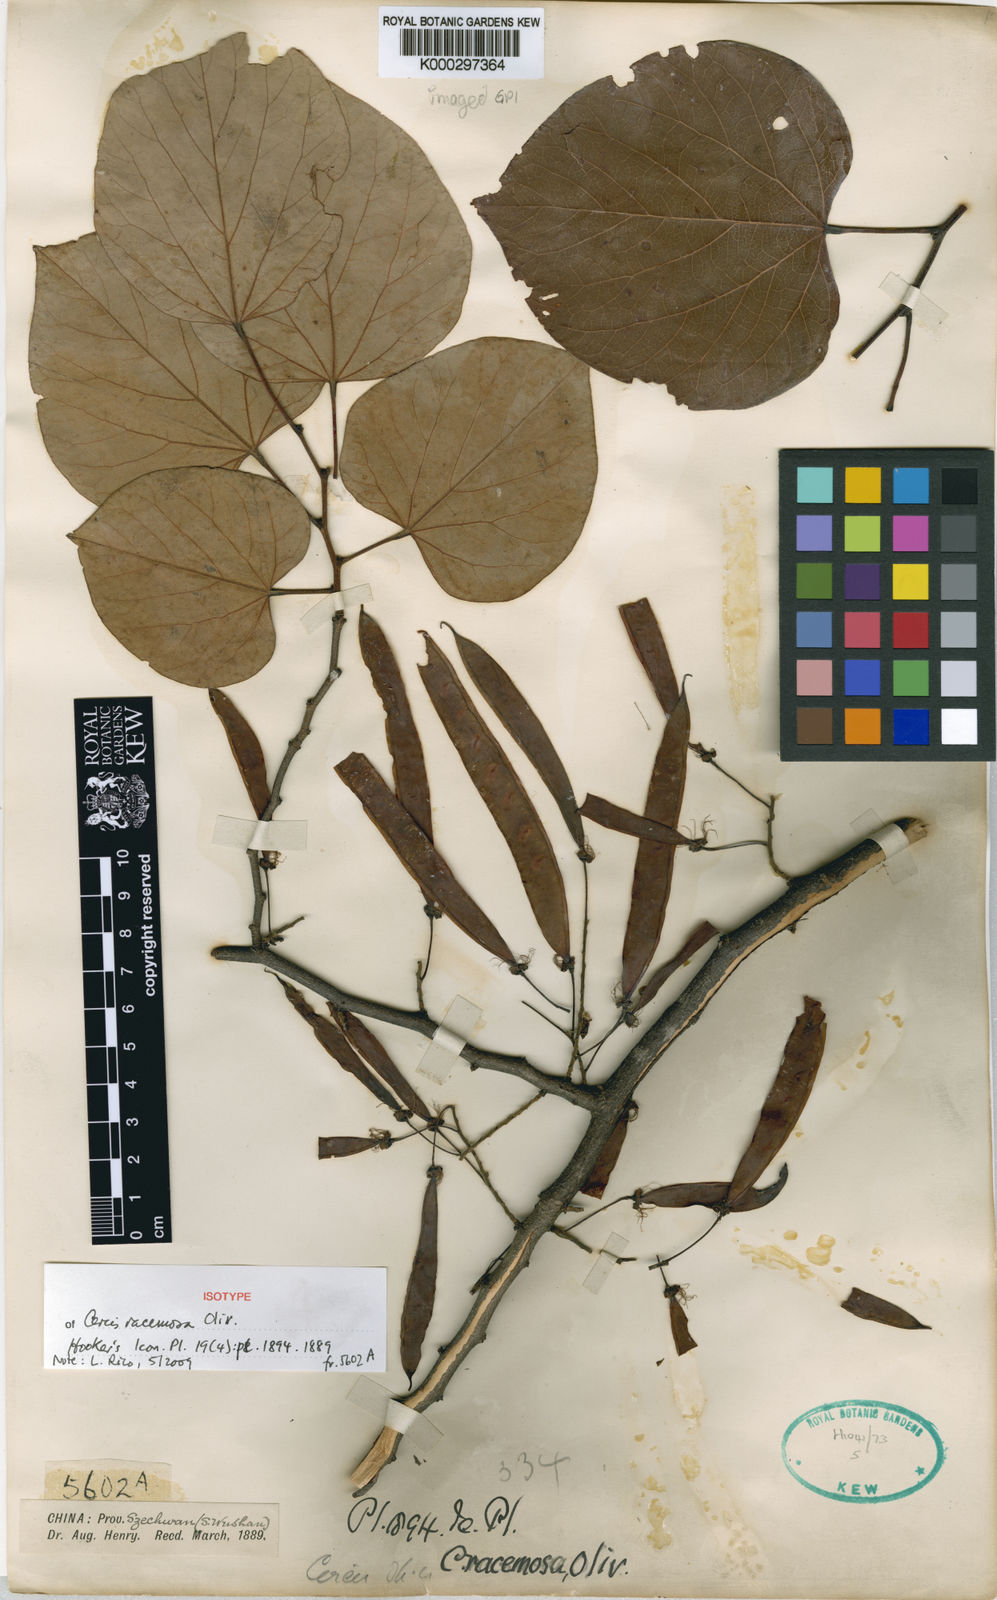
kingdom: Plantae
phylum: Tracheophyta
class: Magnoliopsida
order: Fabales
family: Fabaceae
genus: Cercis
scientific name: Cercis racemosa
